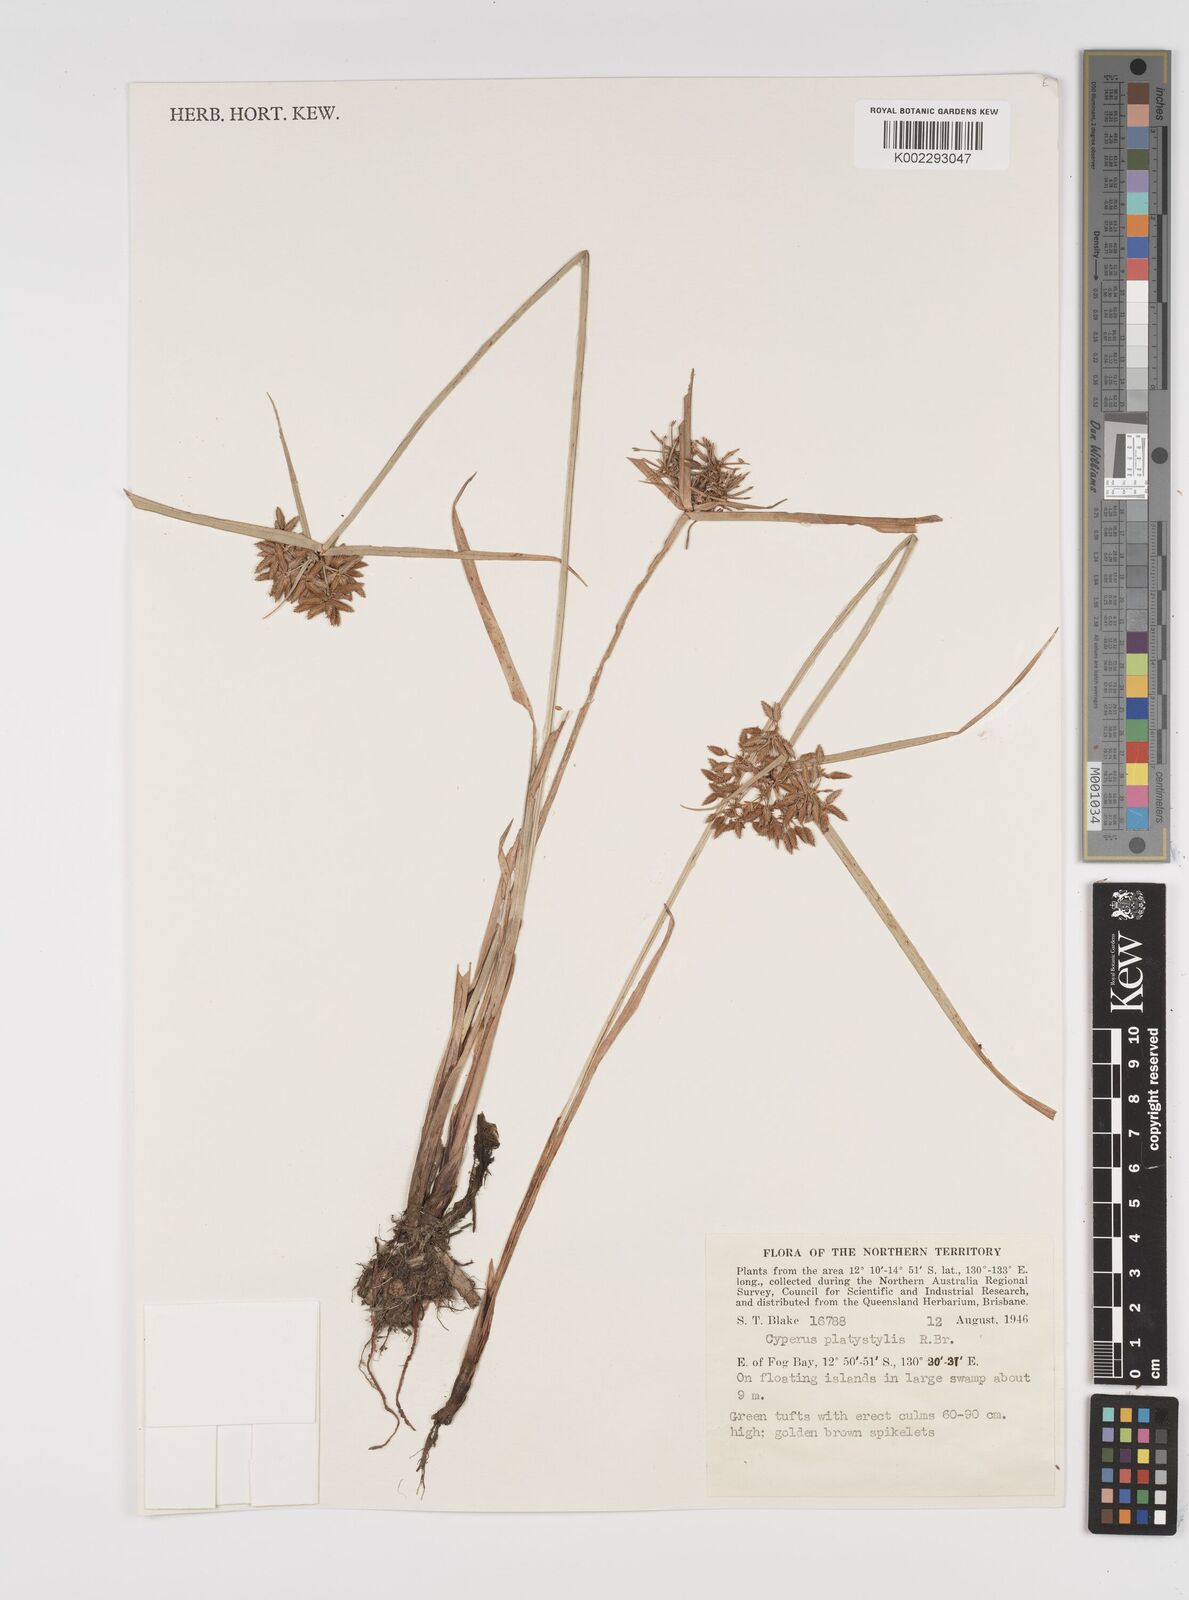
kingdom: Plantae
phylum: Tracheophyta
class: Liliopsida
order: Poales
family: Cyperaceae
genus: Cyperus
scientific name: Cyperus platystylis
